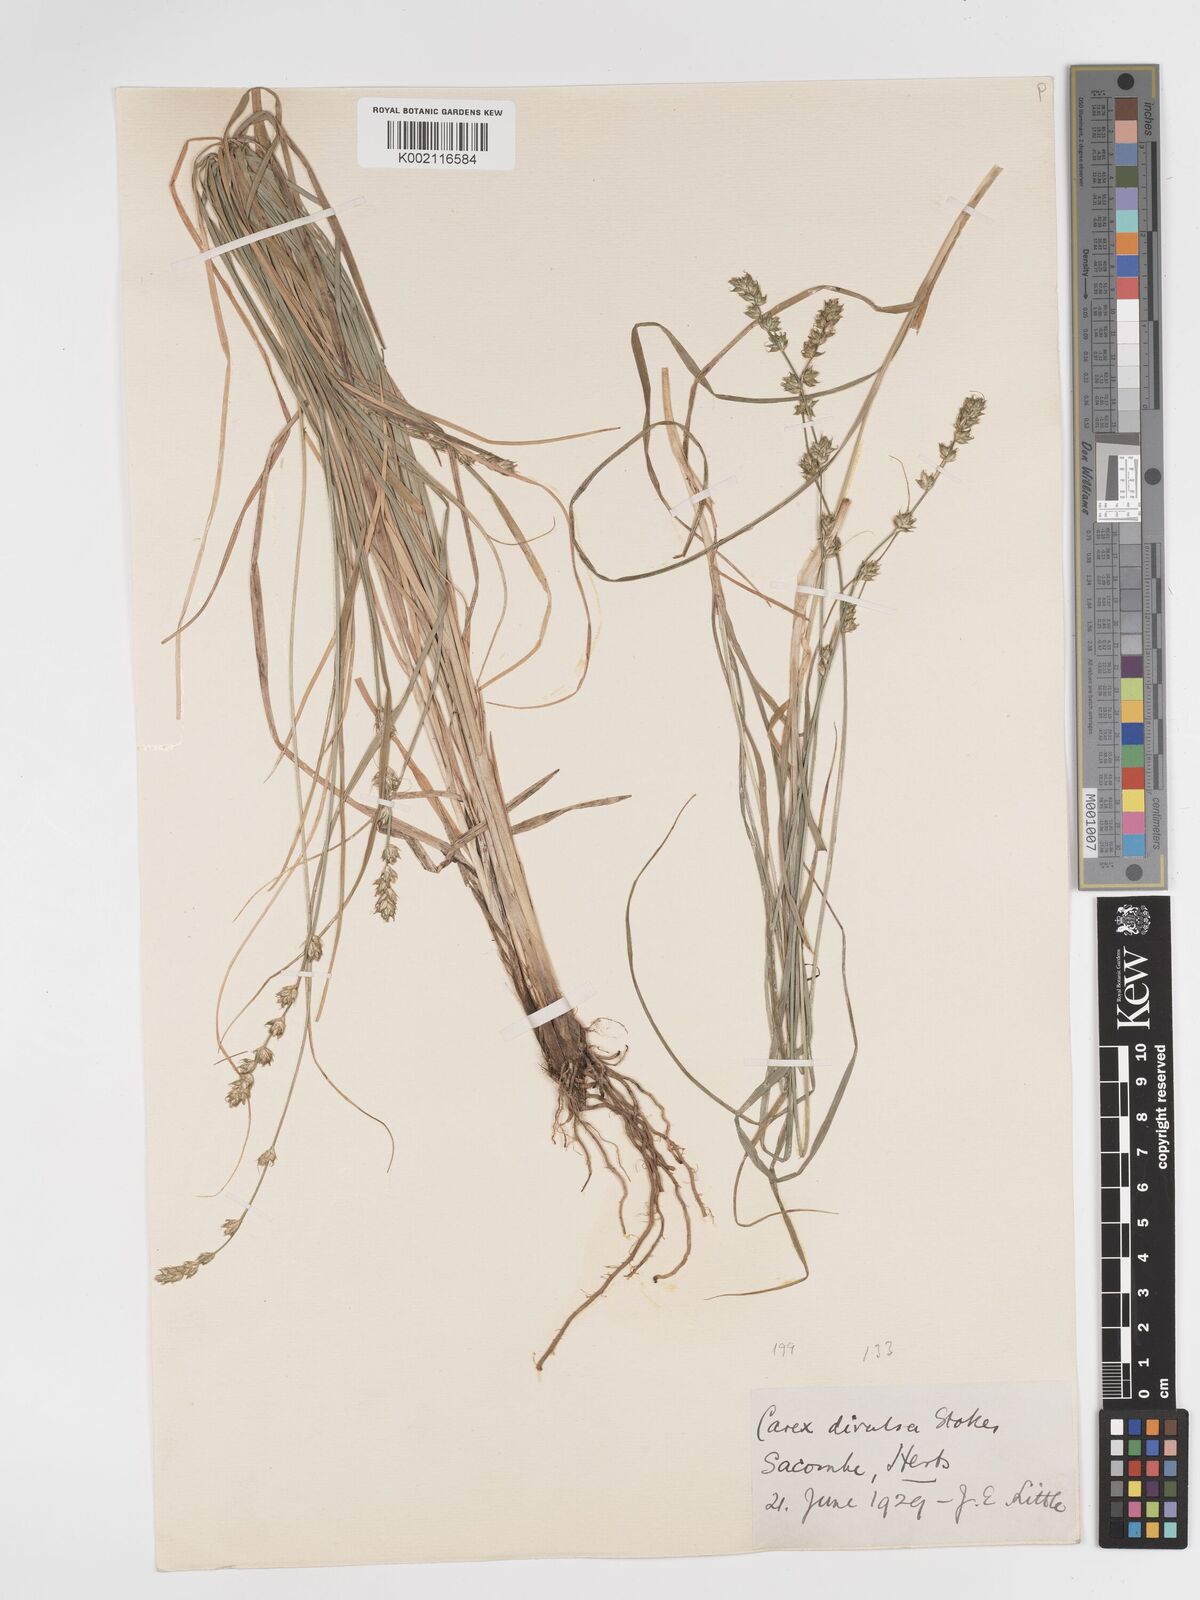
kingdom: Plantae
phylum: Tracheophyta
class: Liliopsida
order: Poales
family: Cyperaceae
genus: Carex
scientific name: Carex divulsa
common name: Grassland sedge
